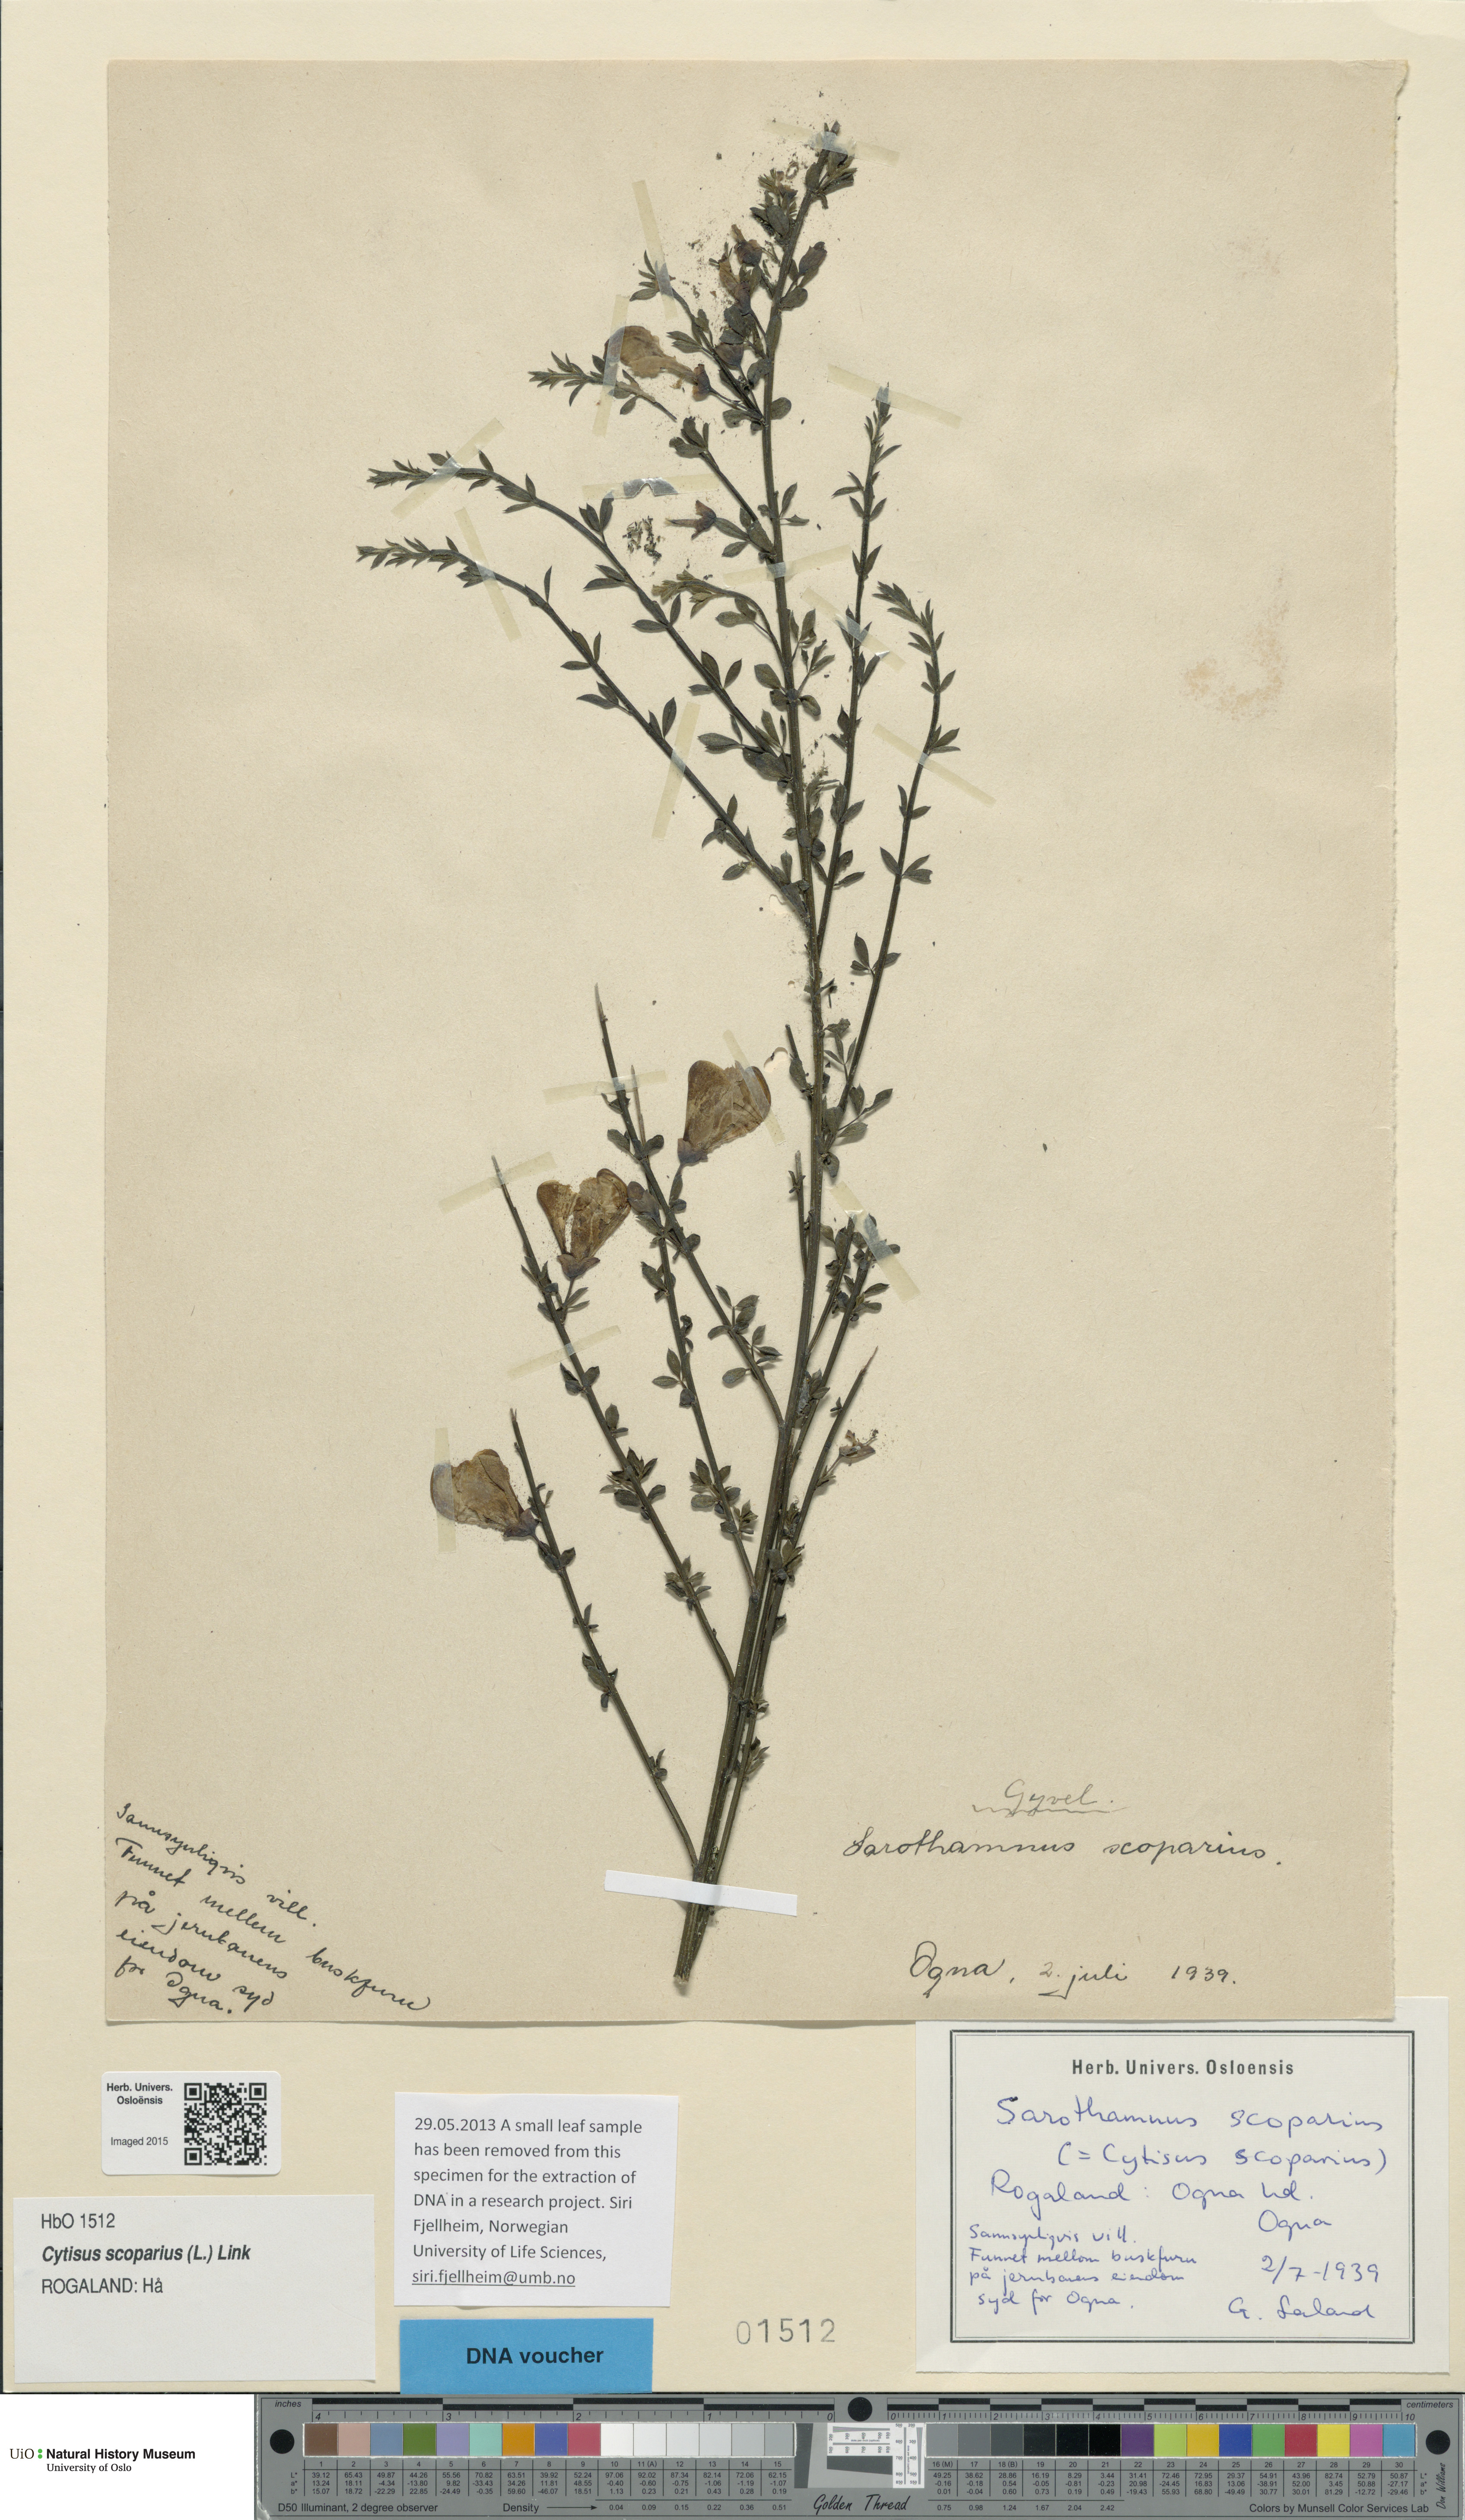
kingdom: Plantae
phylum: Tracheophyta
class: Magnoliopsida
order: Fabales
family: Fabaceae
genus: Cytisus
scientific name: Cytisus scoparius
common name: Scotch broom
